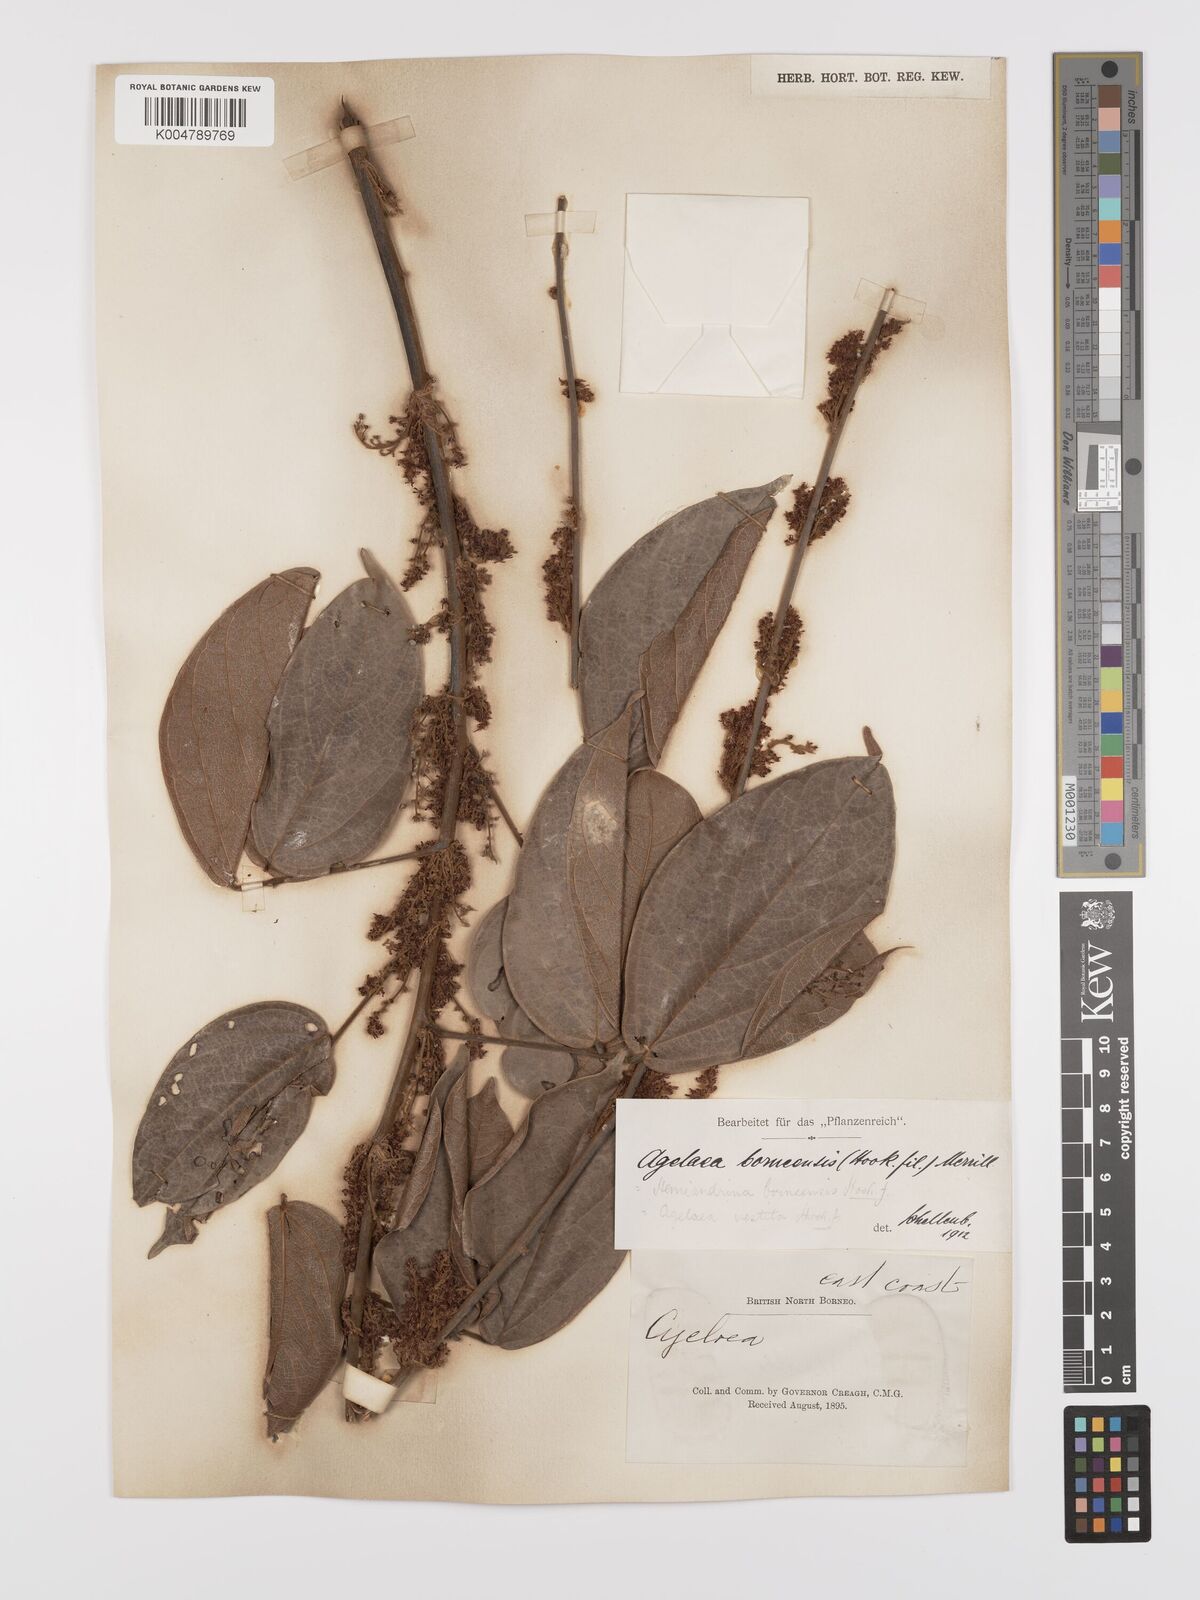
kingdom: Plantae
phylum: Tracheophyta
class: Magnoliopsida
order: Oxalidales
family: Connaraceae
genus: Agelaea
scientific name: Agelaea borneensis
